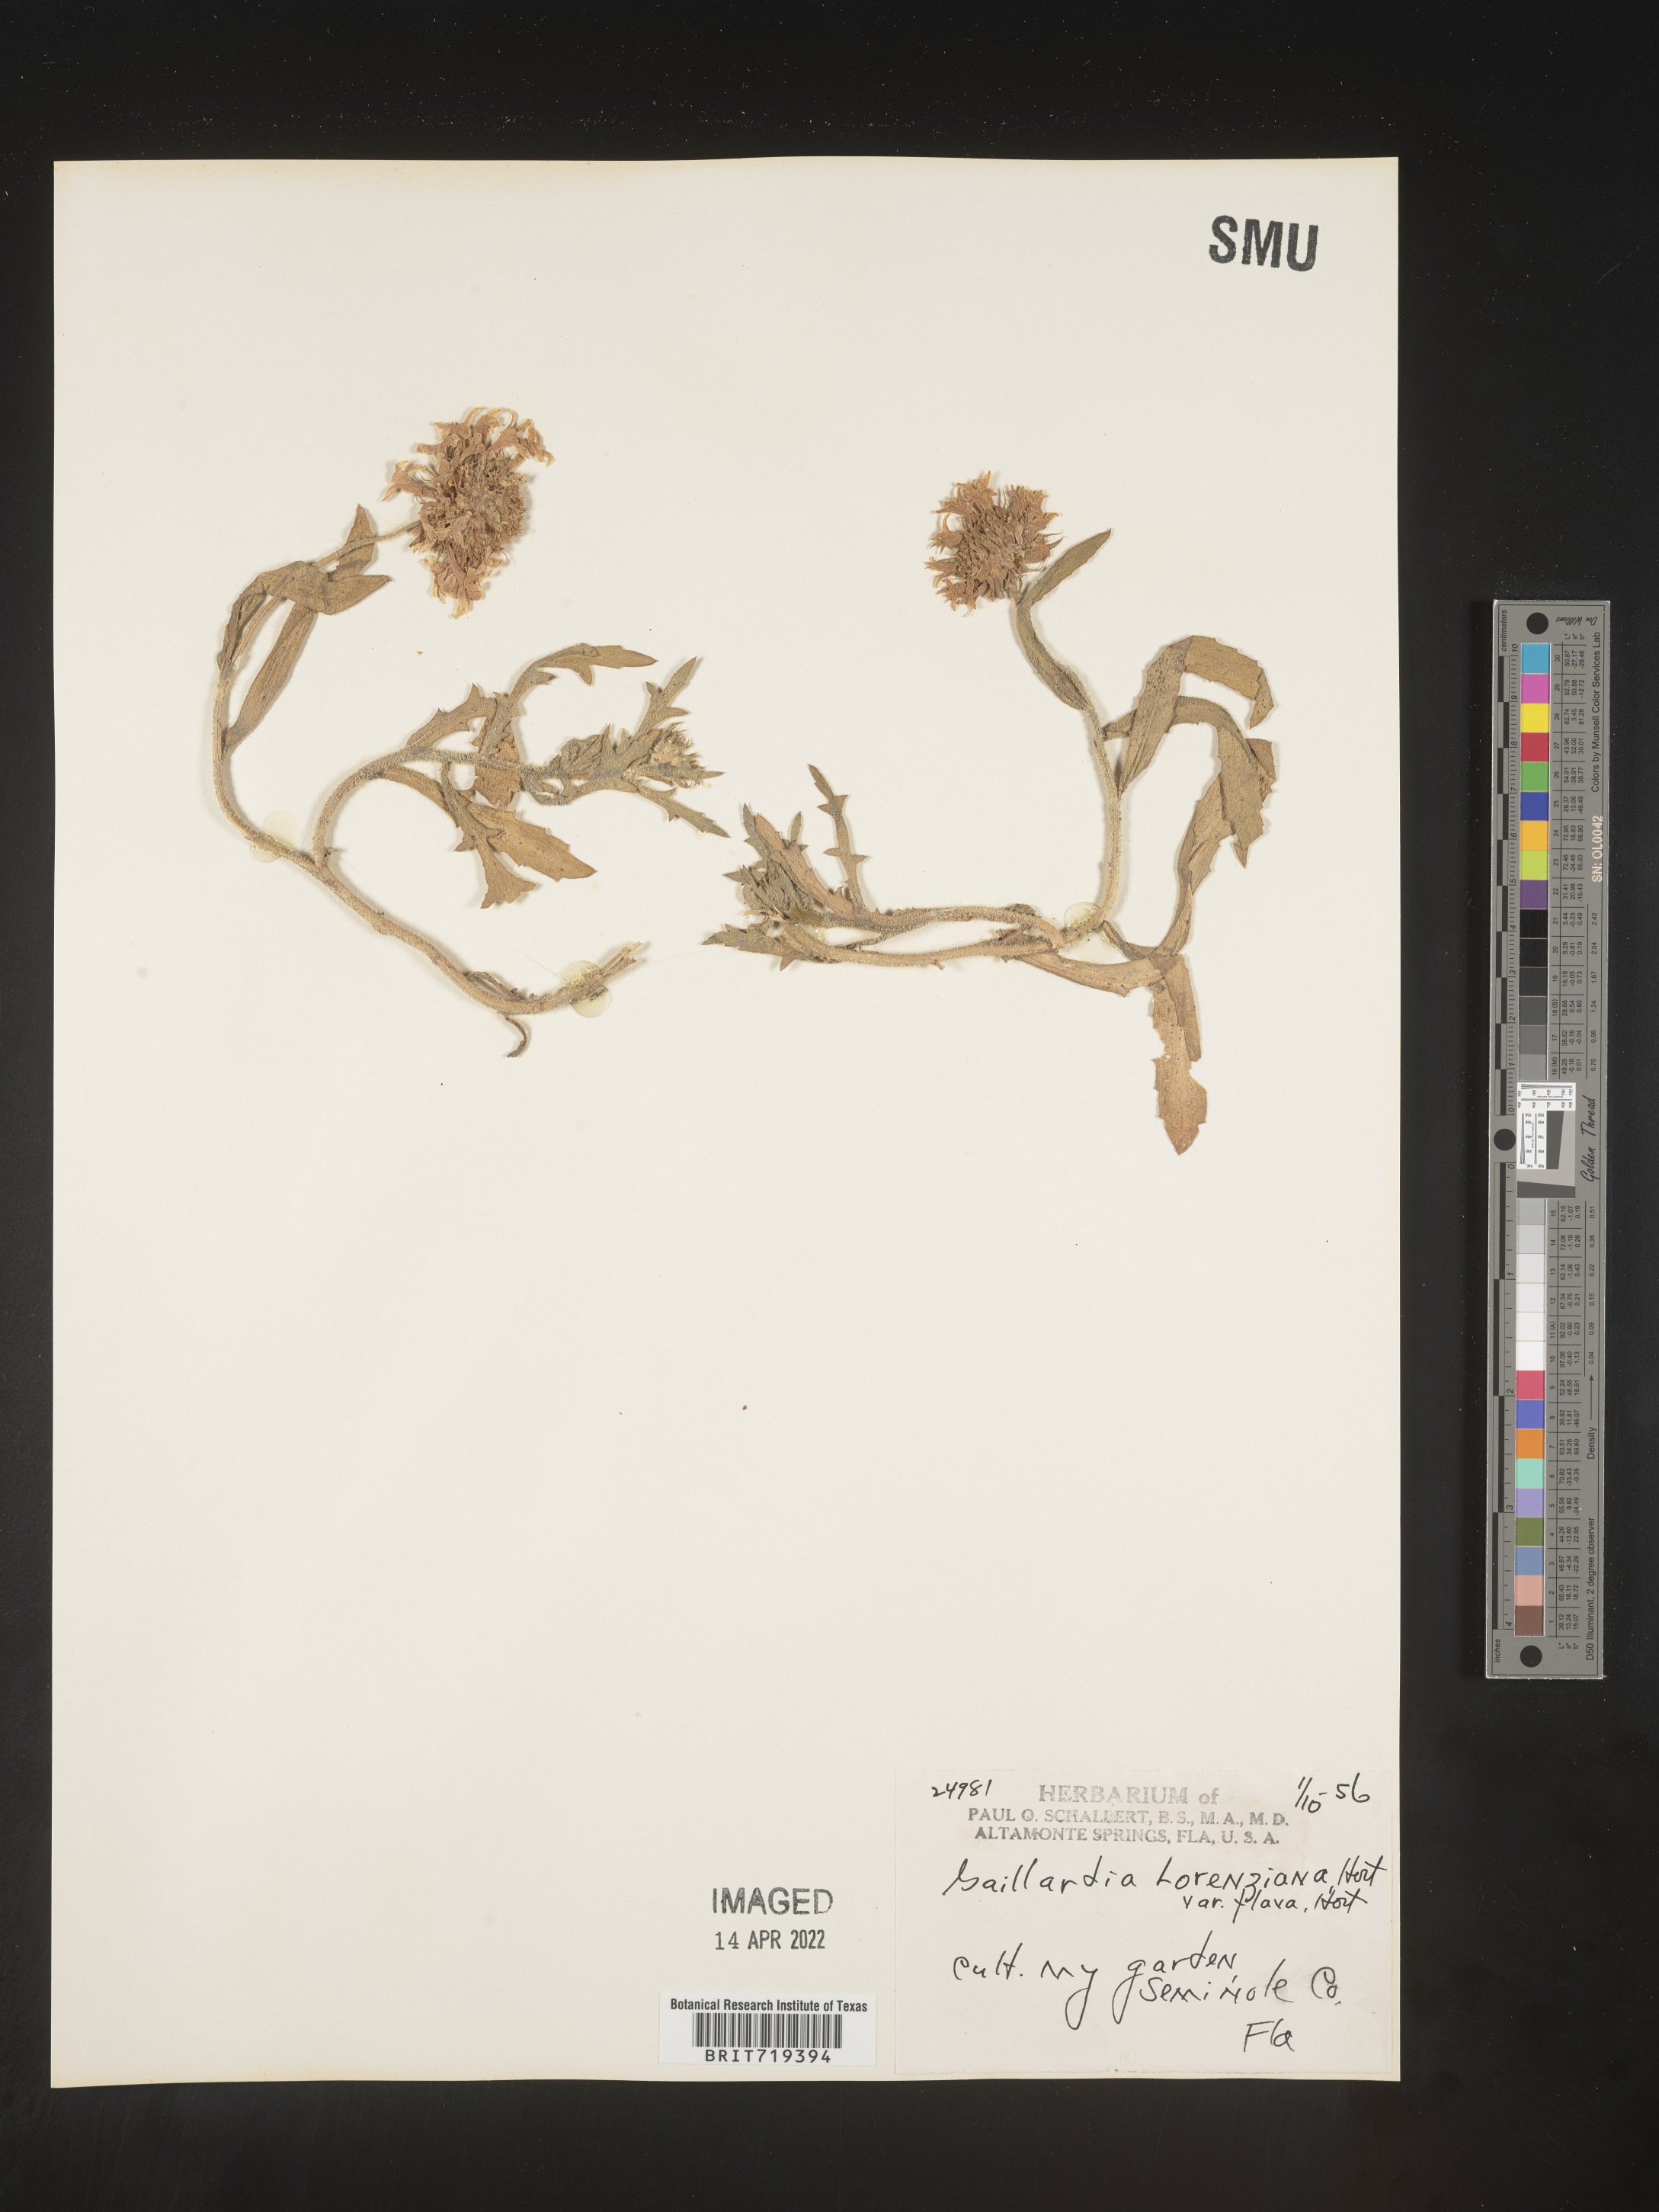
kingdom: Plantae
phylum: Tracheophyta
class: Magnoliopsida
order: Asterales
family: Asteraceae
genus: Gaillardia
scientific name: Gaillardia
